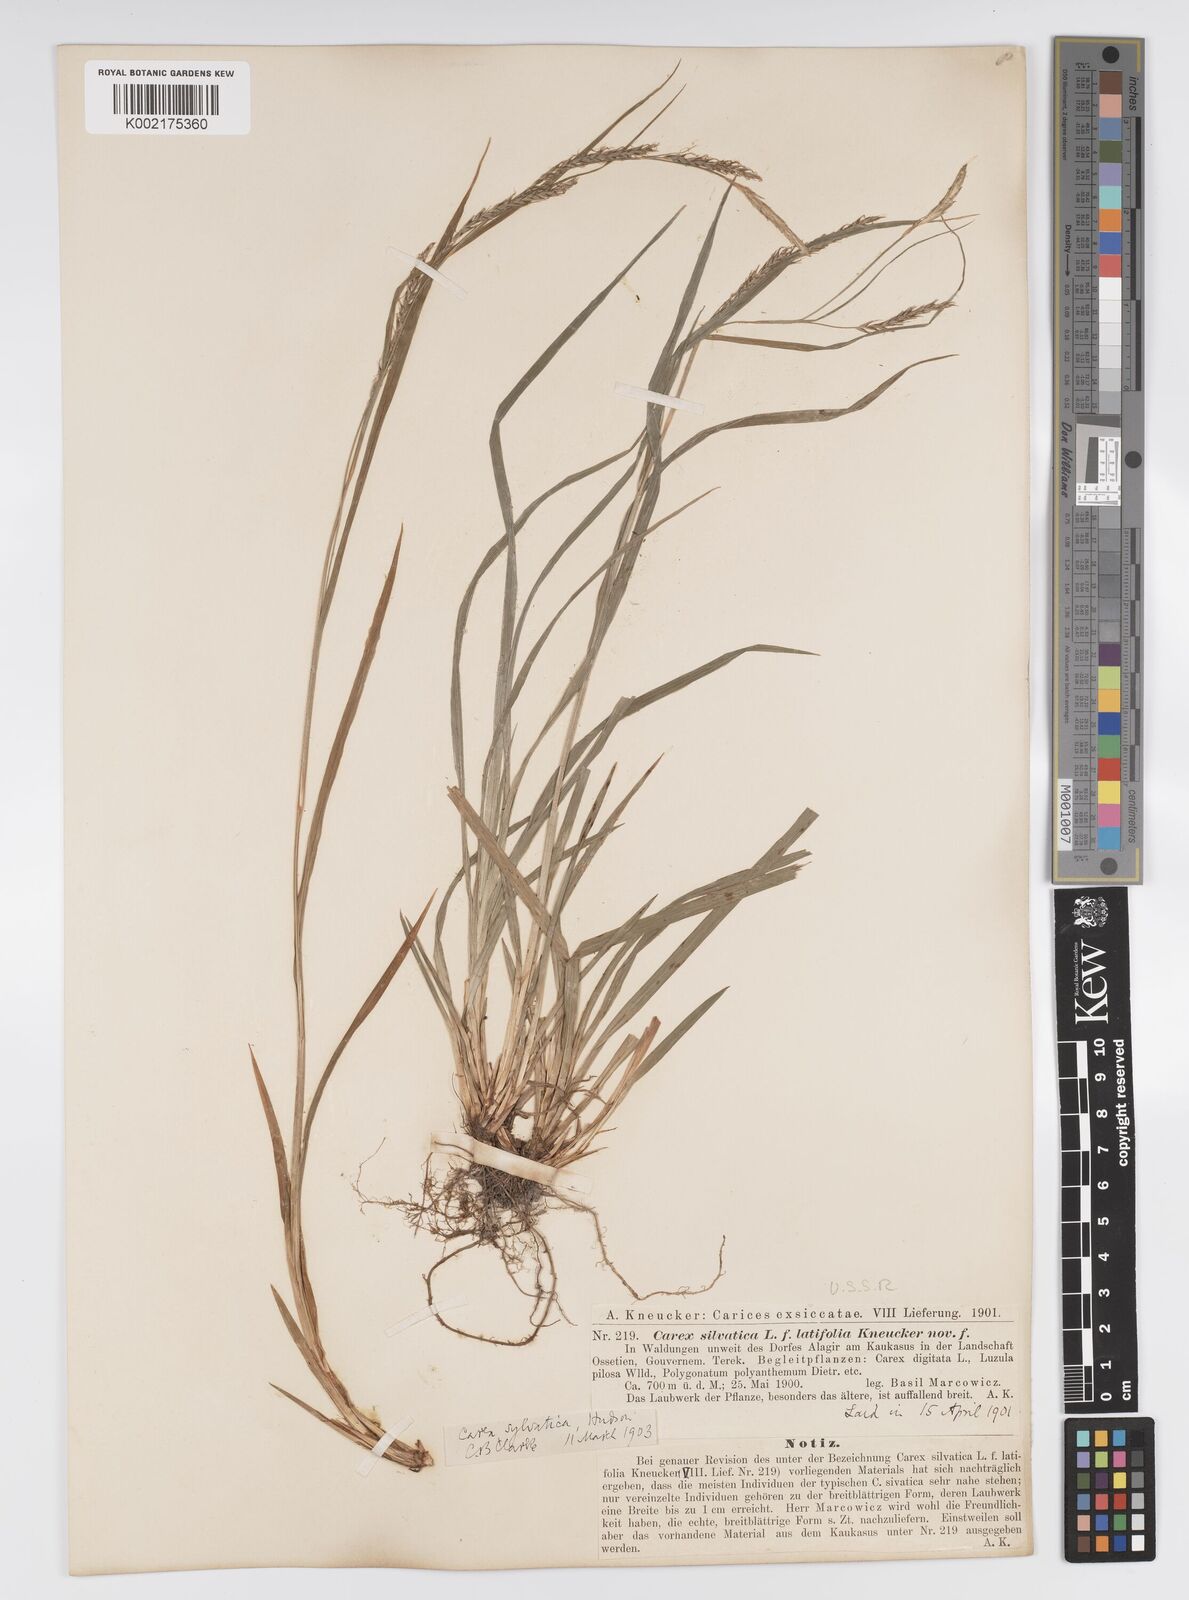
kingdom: Plantae
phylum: Tracheophyta
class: Liliopsida
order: Poales
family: Cyperaceae
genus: Carex
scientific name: Carex sylvatica
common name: Wood-sedge
